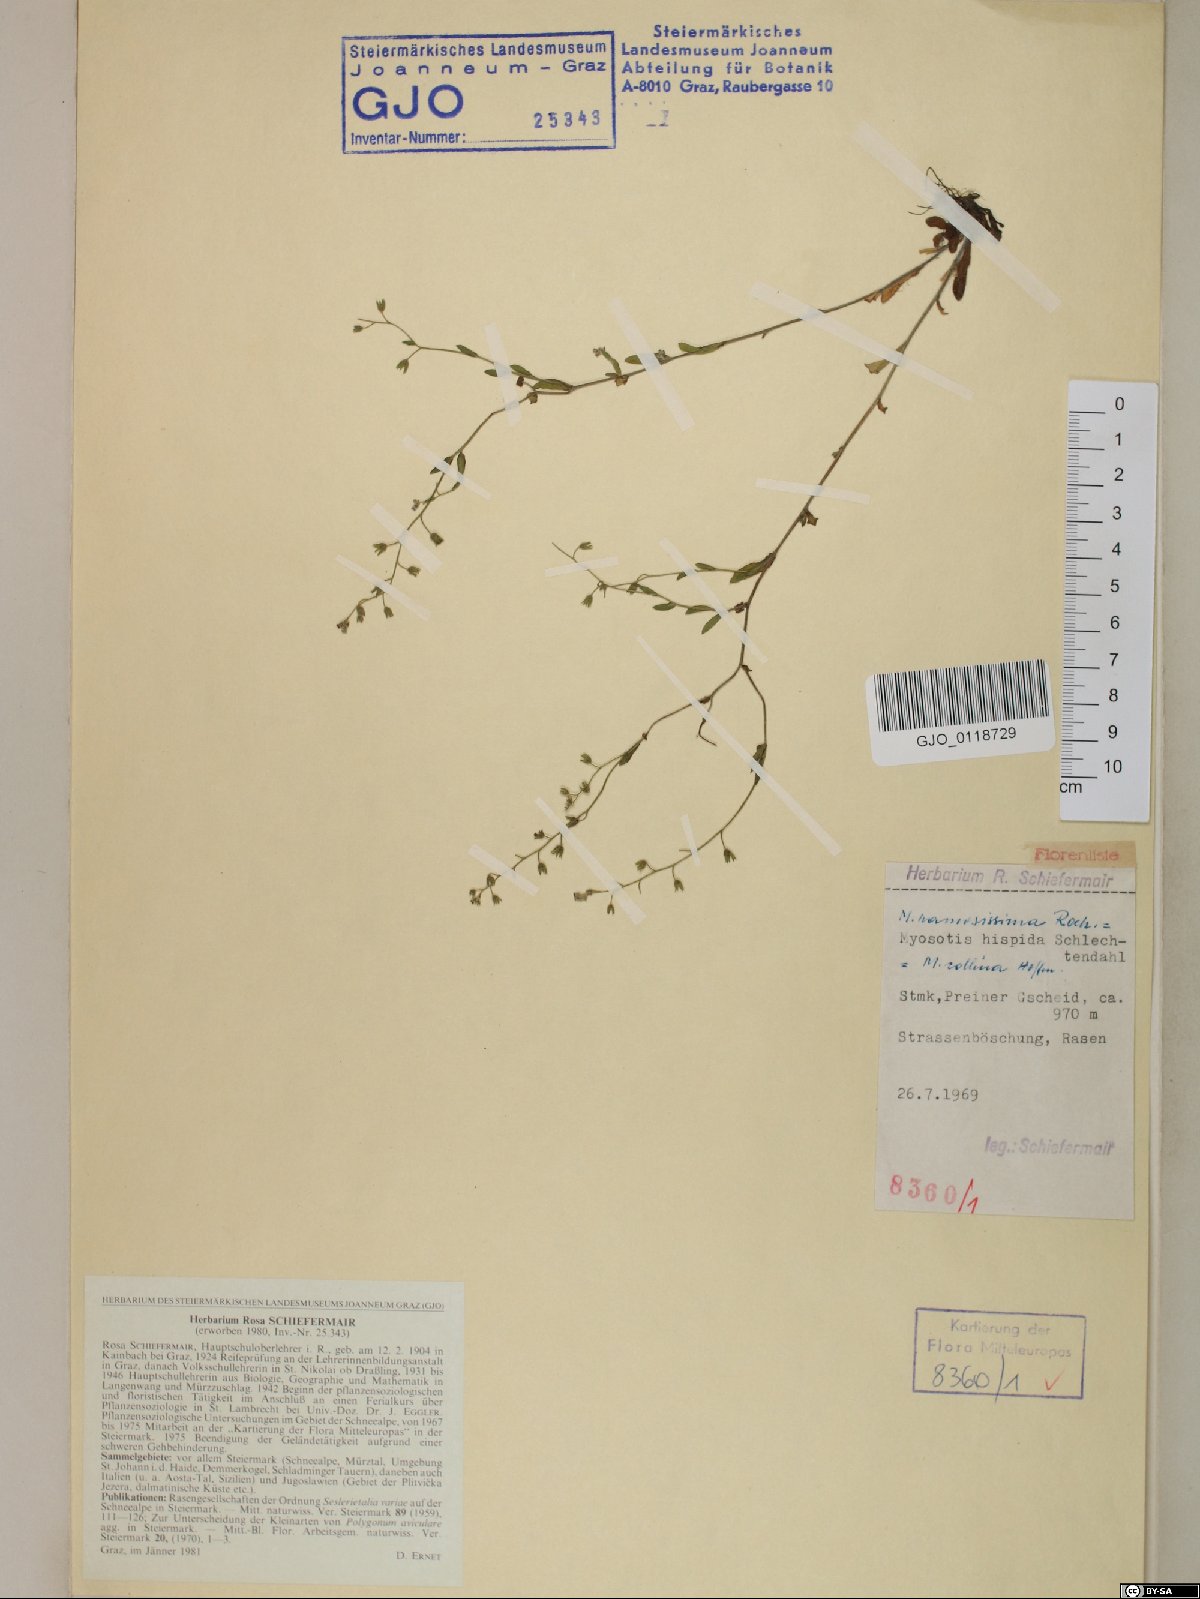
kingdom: Plantae
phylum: Tracheophyta
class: Magnoliopsida
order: Boraginales
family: Boraginaceae
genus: Myosotis
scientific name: Myosotis ramosissima
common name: Early forget-me-not
